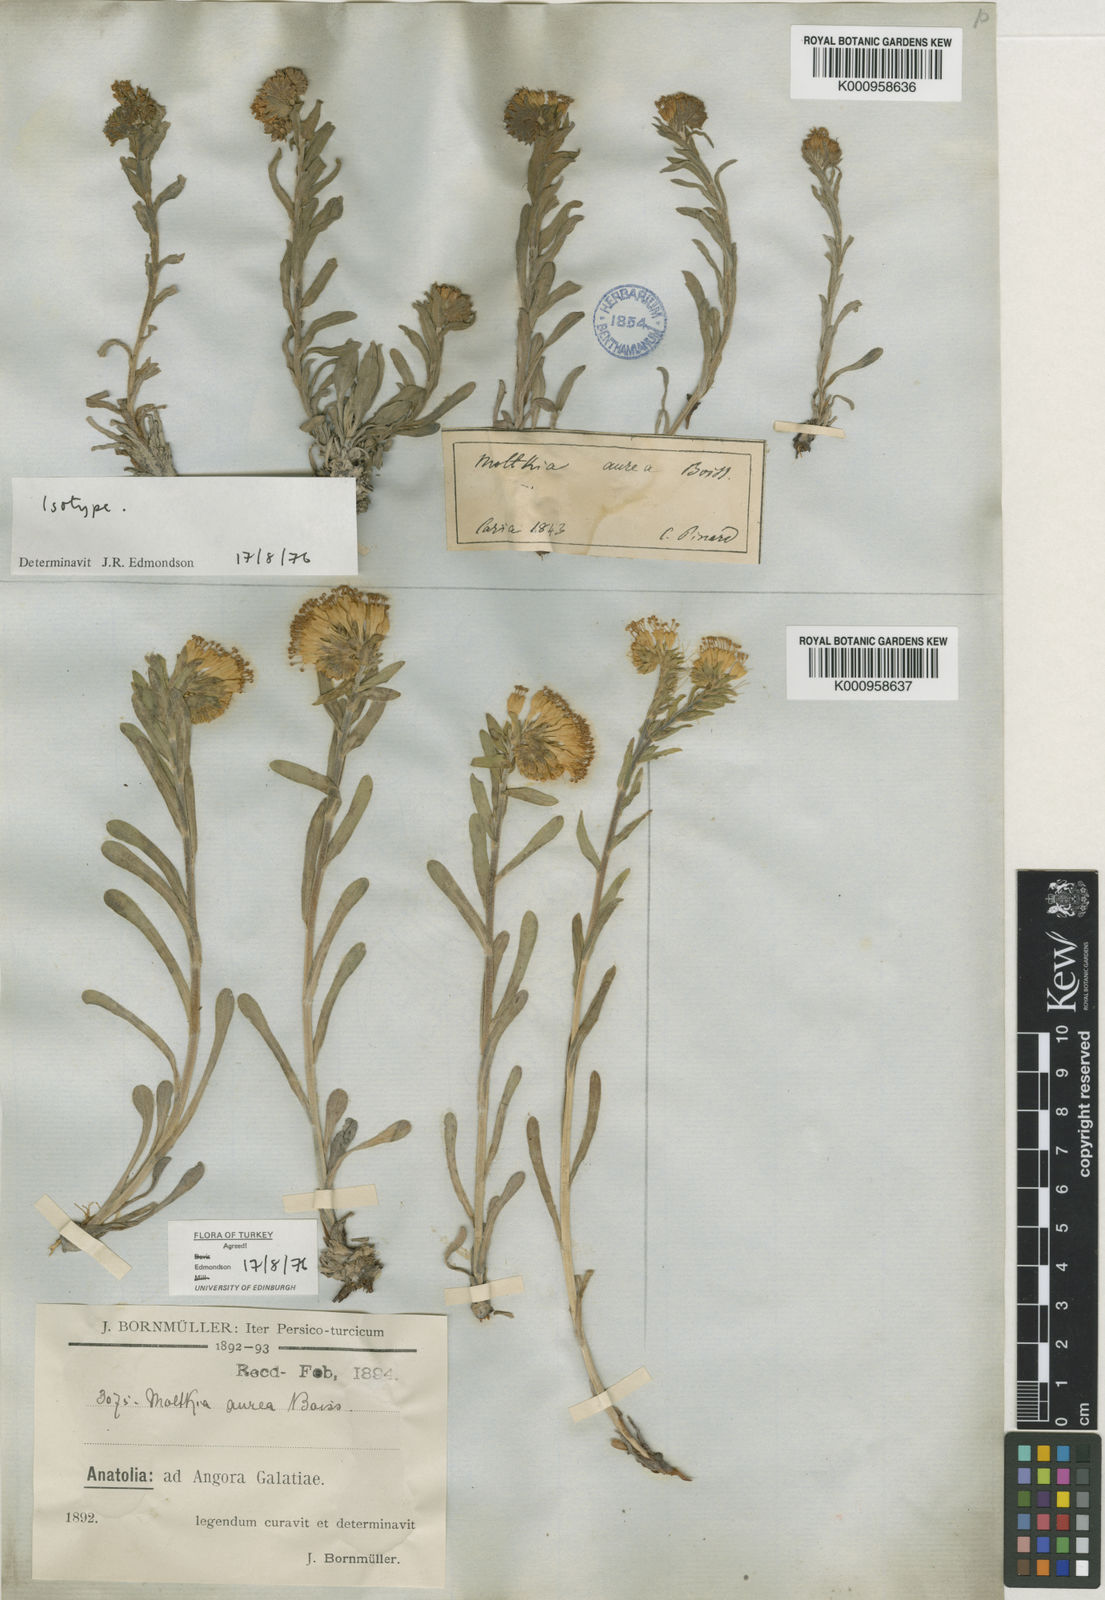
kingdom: Plantae
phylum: Tracheophyta
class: Magnoliopsida
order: Boraginales
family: Boraginaceae
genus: Moltkia
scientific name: Moltkia aurea
